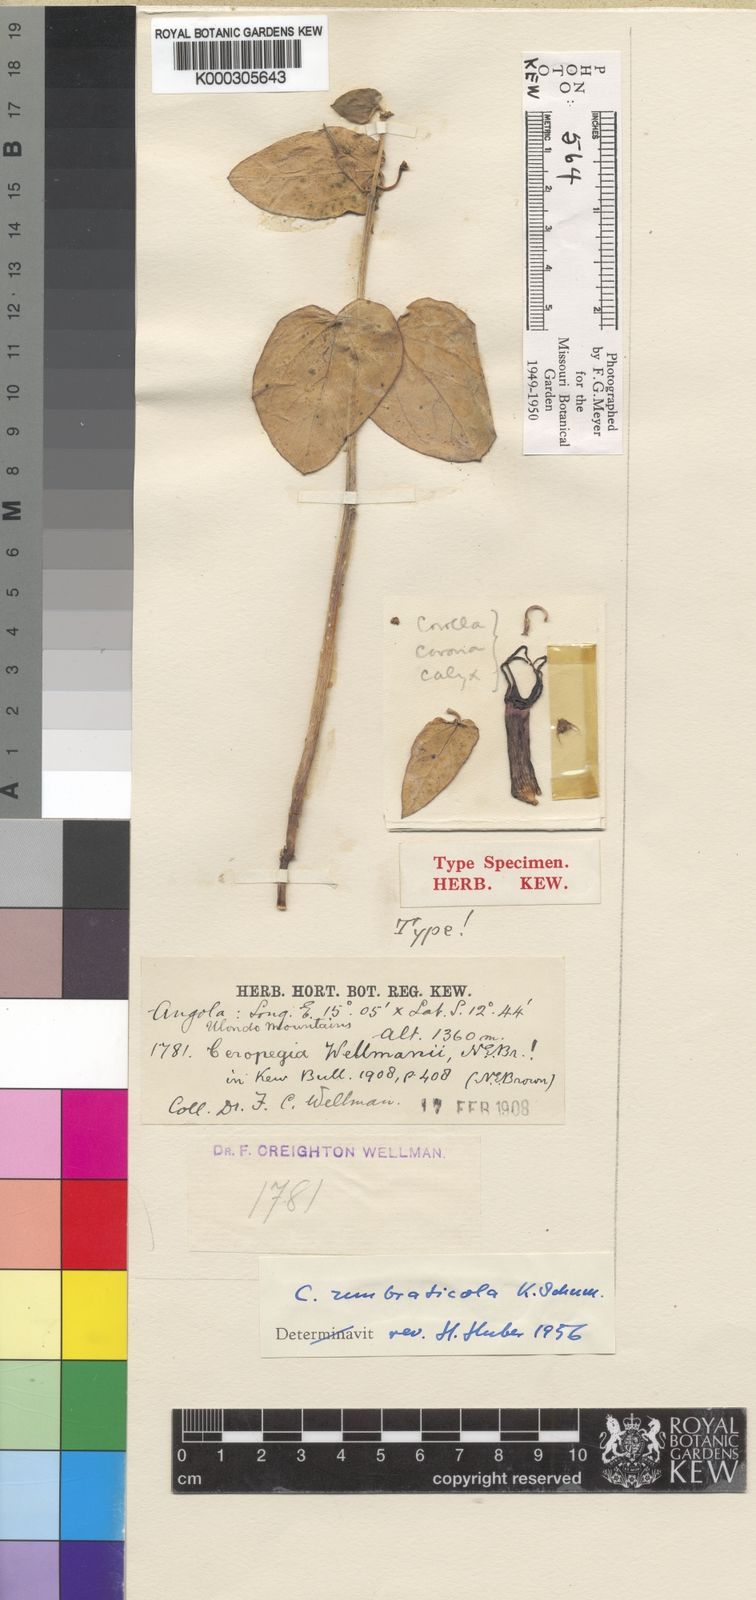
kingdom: Plantae
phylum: Tracheophyta
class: Magnoliopsida
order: Gentianales
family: Apocynaceae
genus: Ceropegia
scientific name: Ceropegia umbraticola
